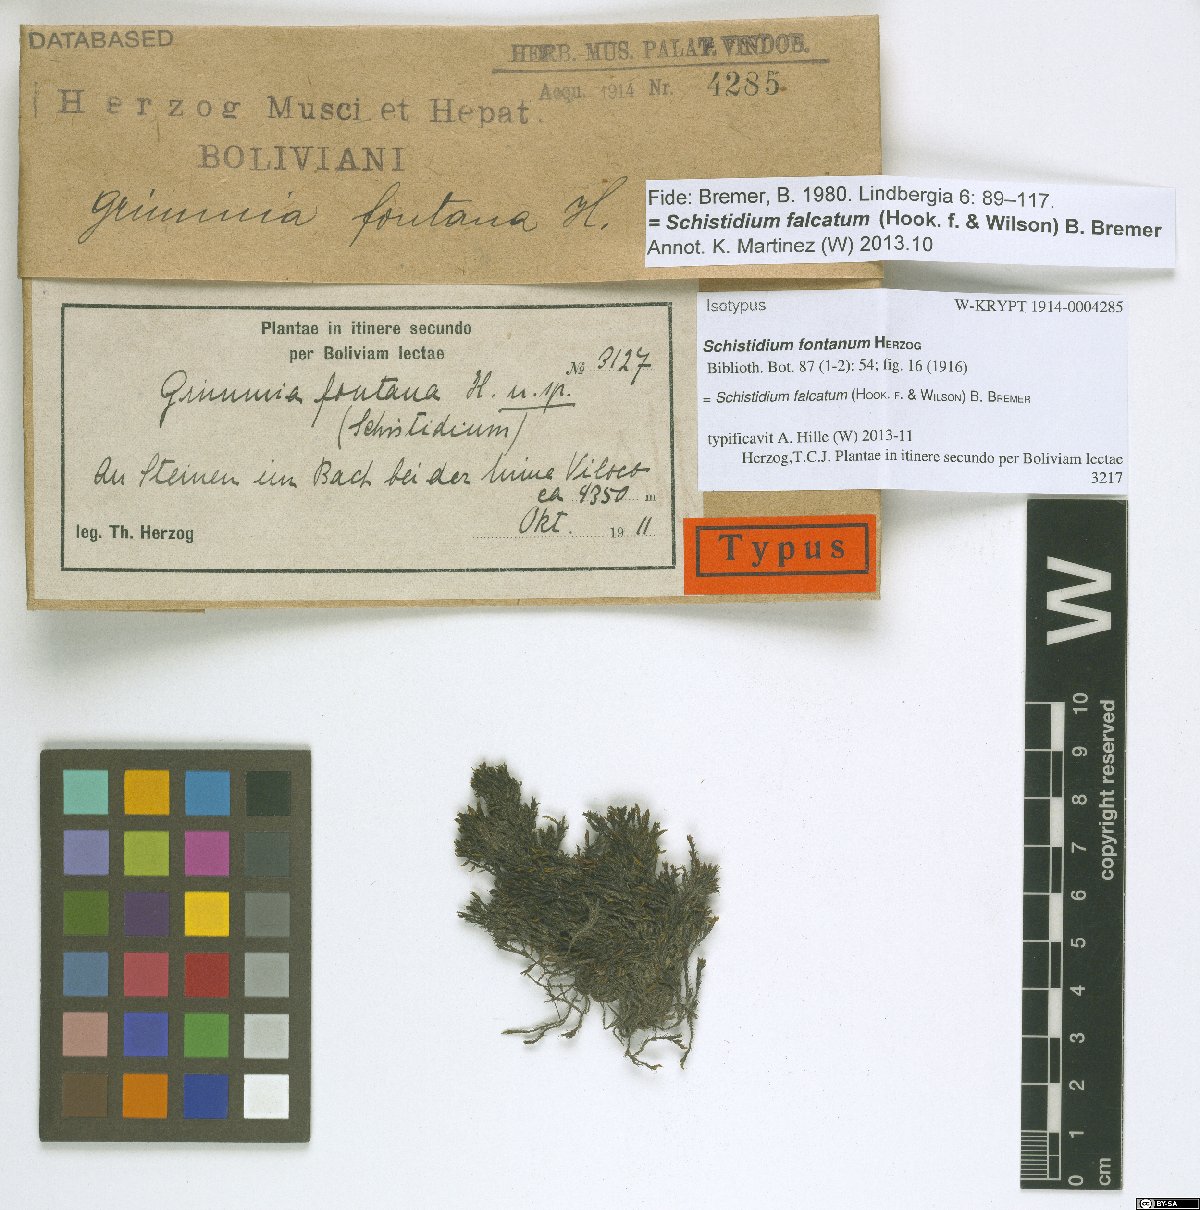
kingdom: Plantae
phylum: Bryophyta
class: Bryopsida
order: Grimmiales
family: Grimmiaceae
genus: Schistidium
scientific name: Schistidium falcatum
